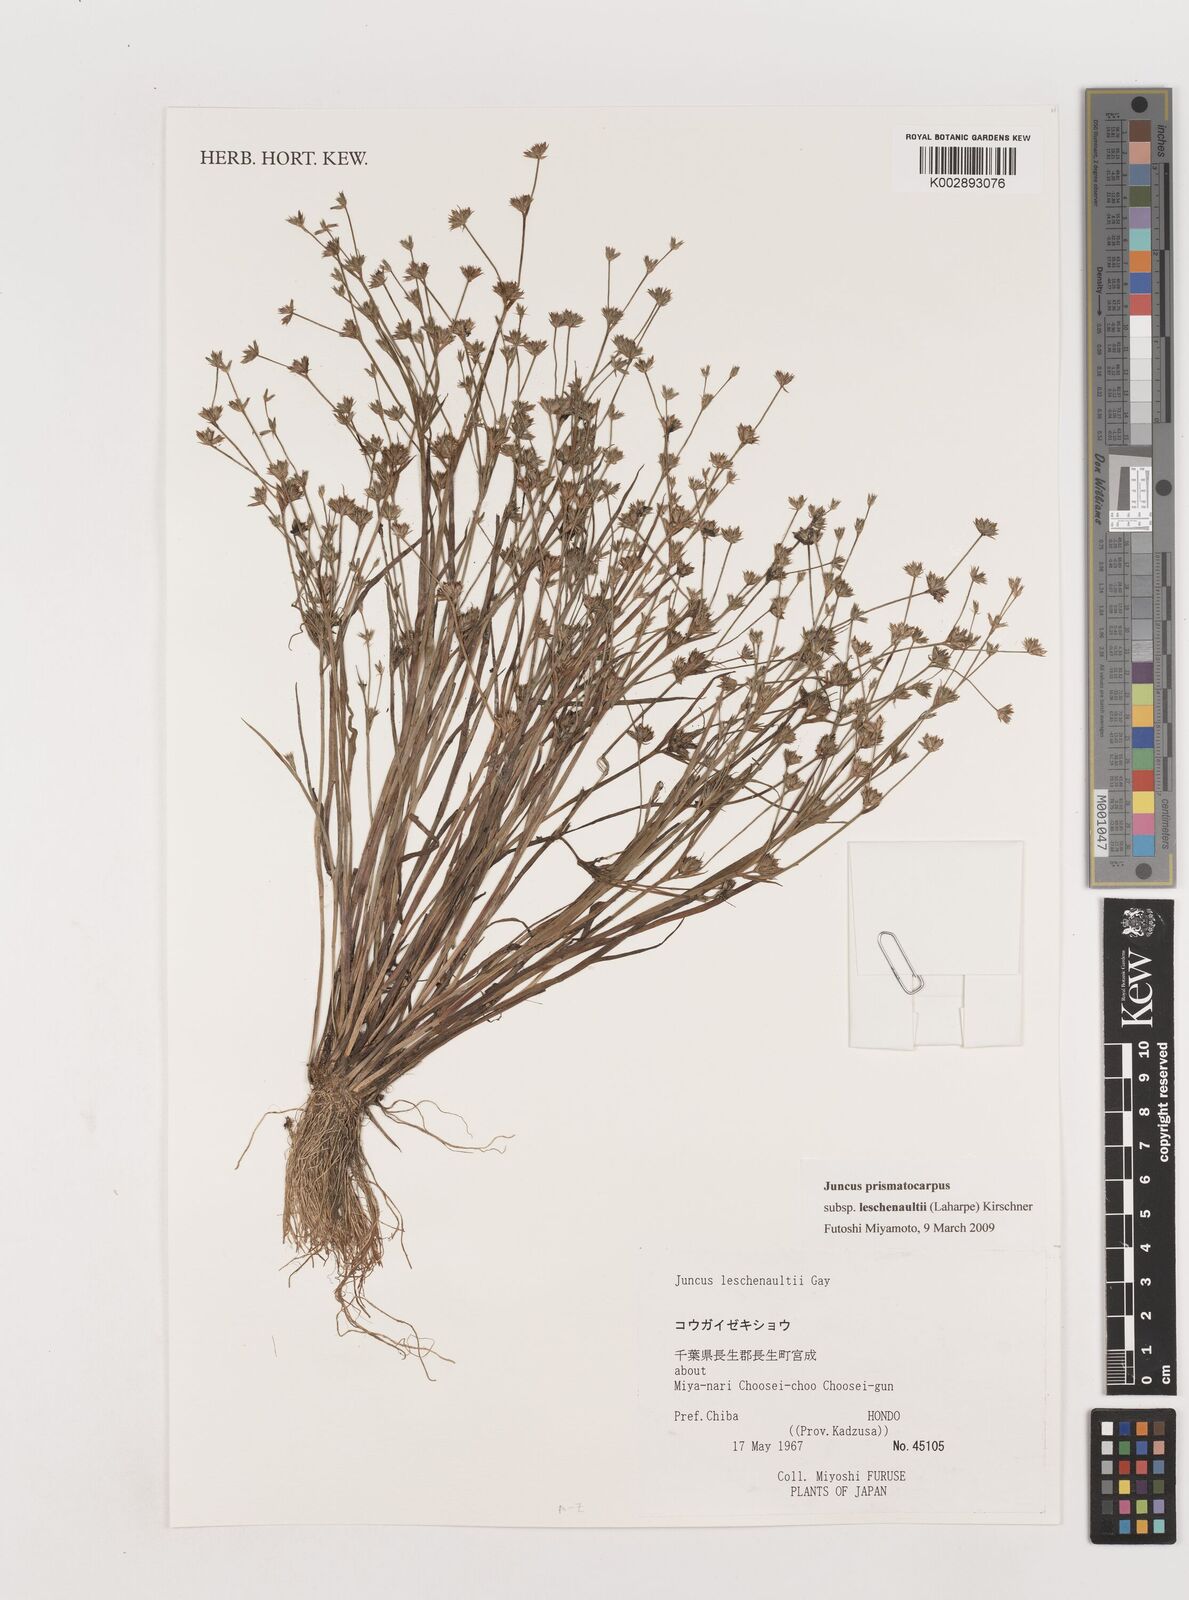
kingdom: Plantae
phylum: Tracheophyta
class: Liliopsida
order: Poales
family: Juncaceae
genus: Juncus
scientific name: Juncus prismatocarpus
